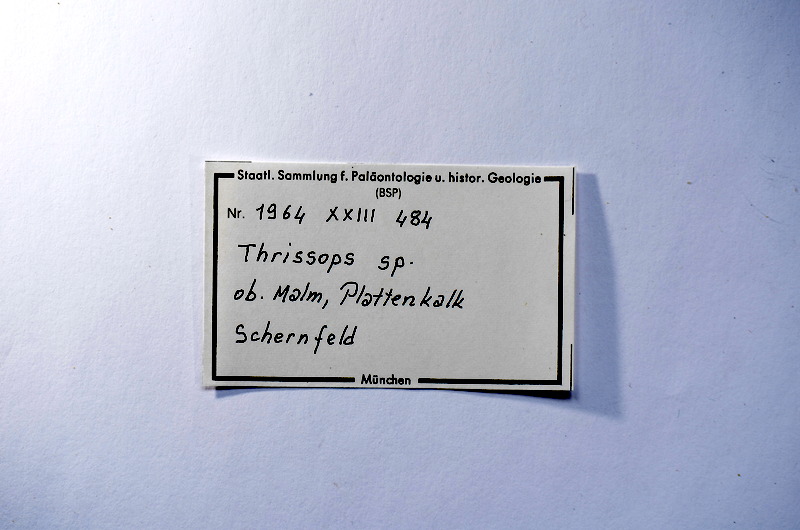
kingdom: Animalia
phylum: Chordata
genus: Thrissops
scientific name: Thrissops
